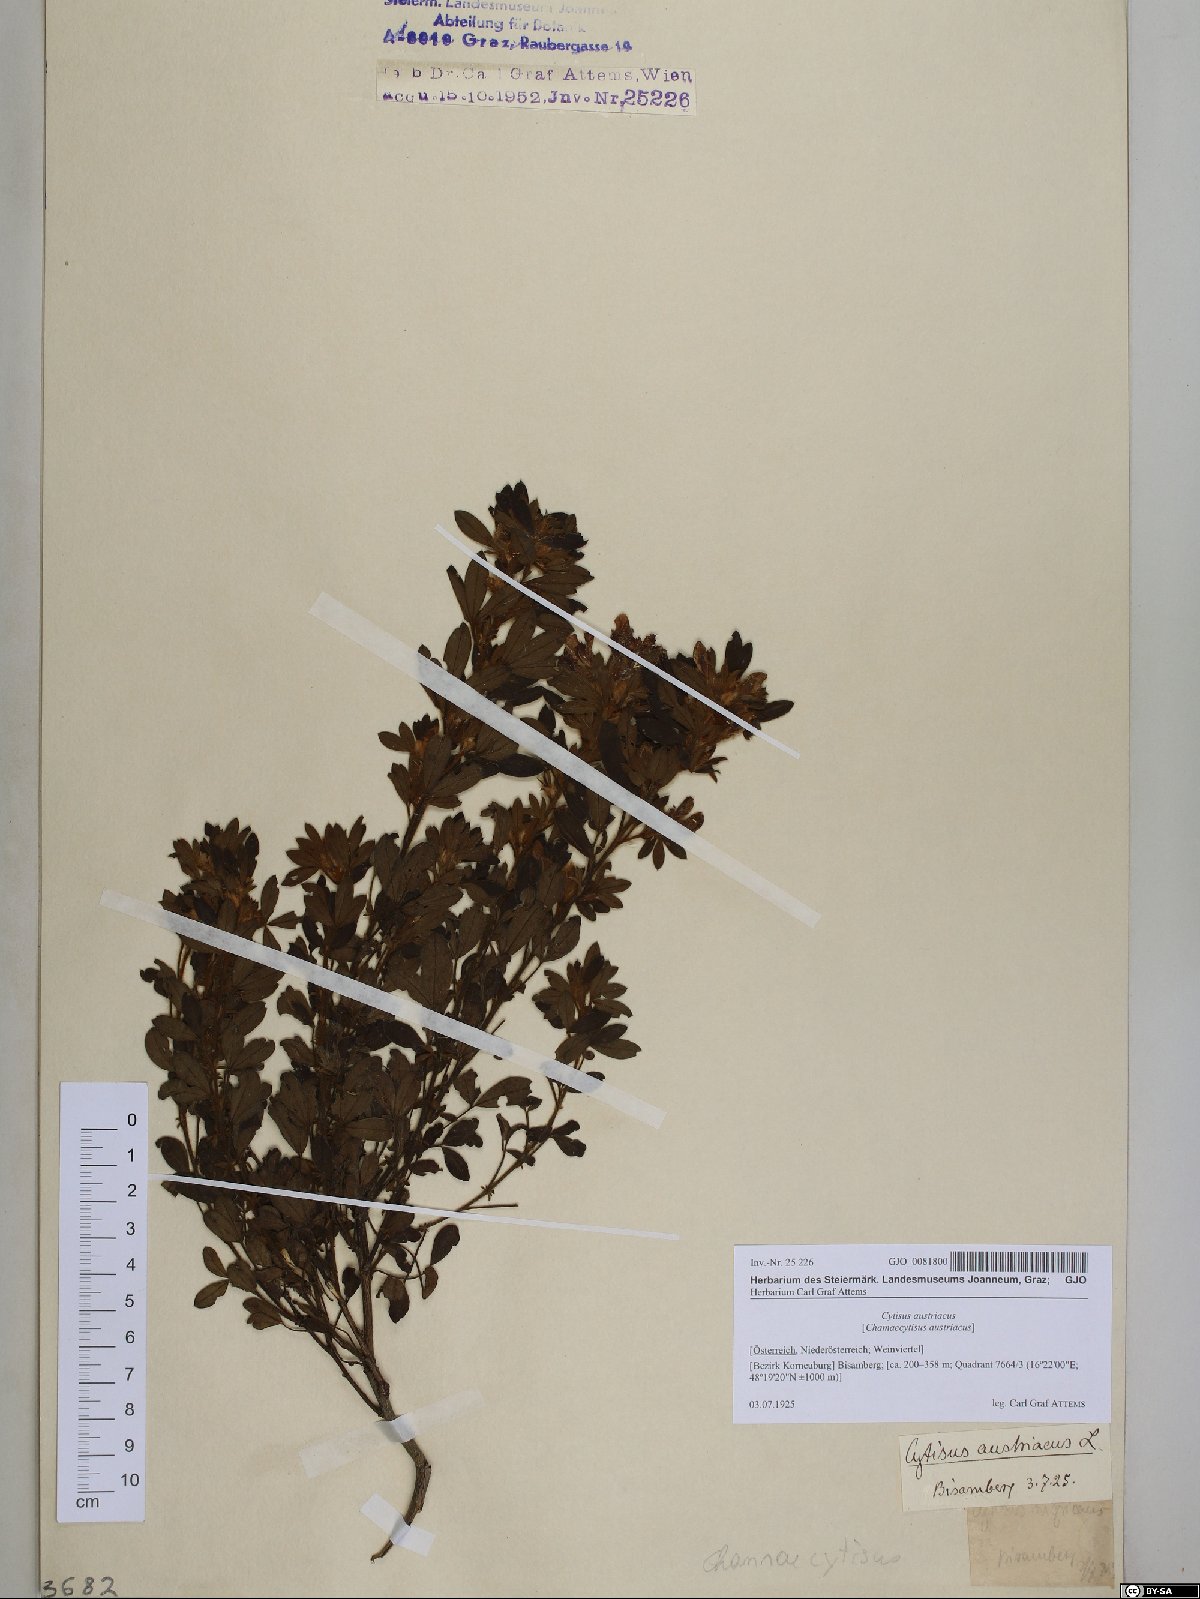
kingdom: Plantae
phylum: Tracheophyta
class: Magnoliopsida
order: Fabales
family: Fabaceae
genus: Chamaecytisus
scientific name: Chamaecytisus austriacus
